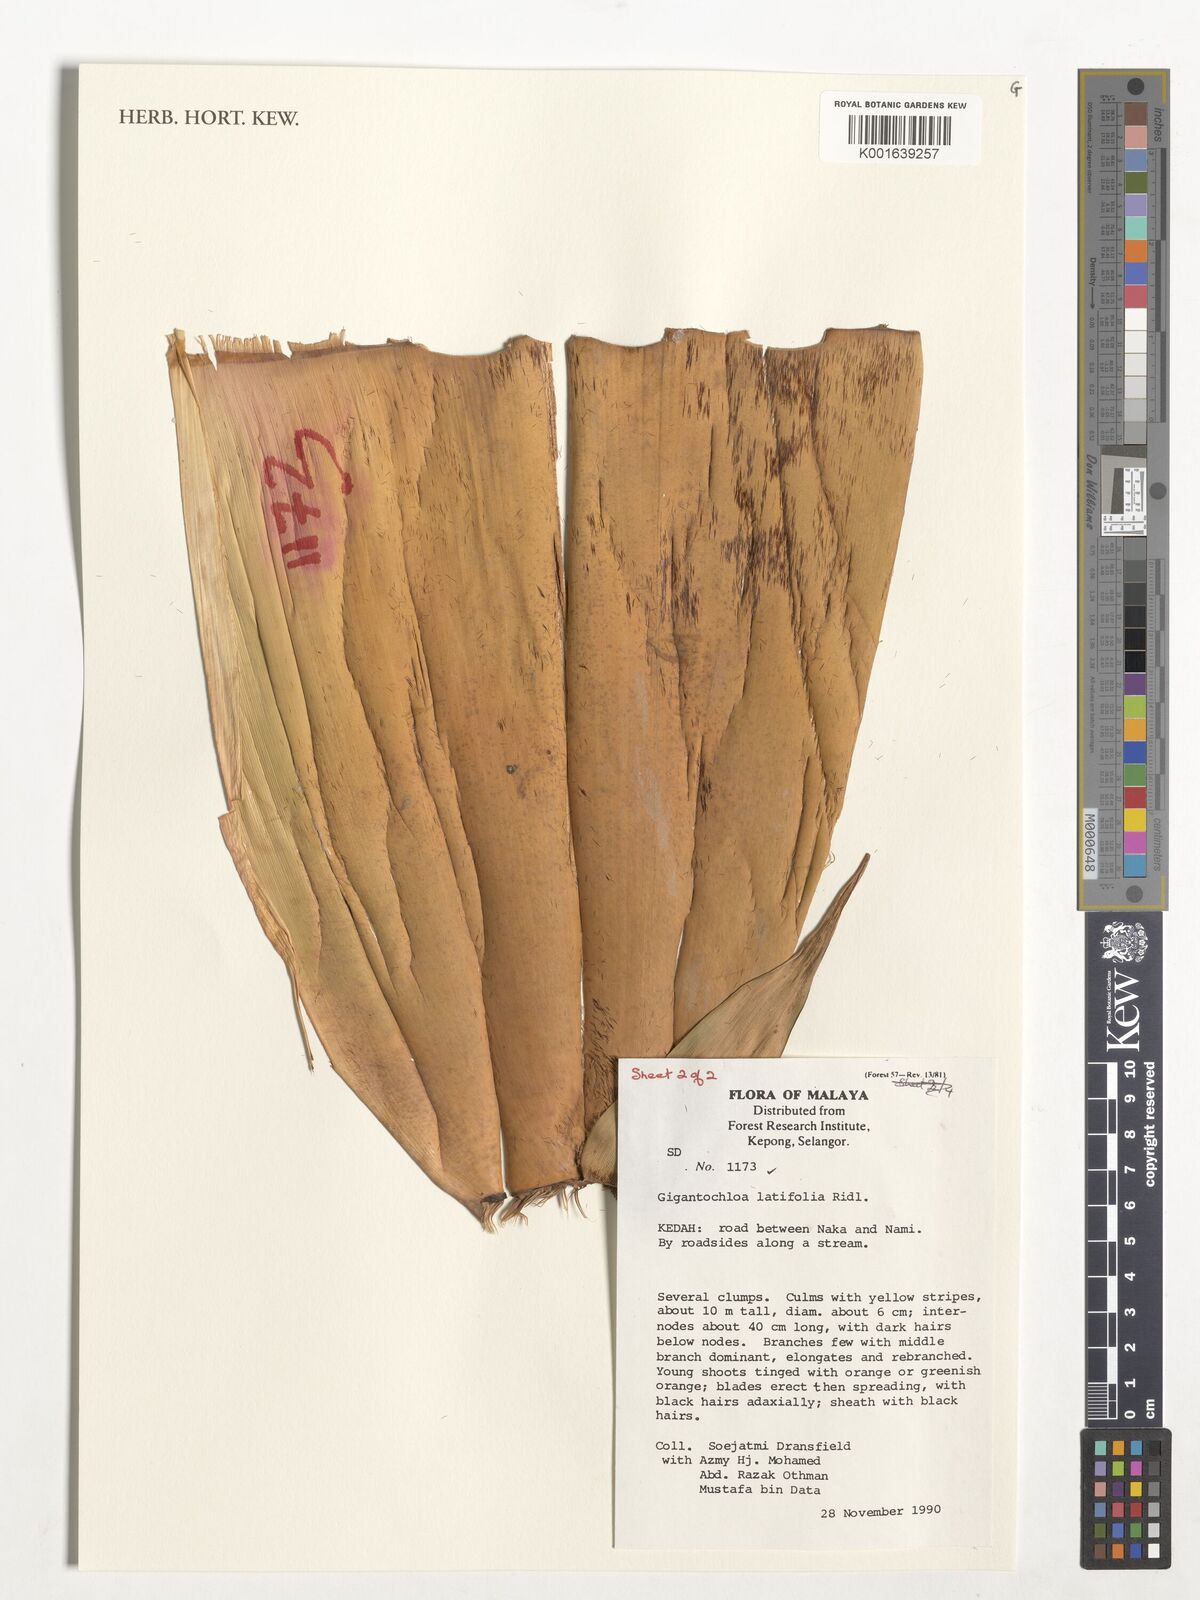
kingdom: Plantae
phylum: Tracheophyta
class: Liliopsida
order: Poales
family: Poaceae
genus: Gigantochloa
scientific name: Gigantochloa latifolia
